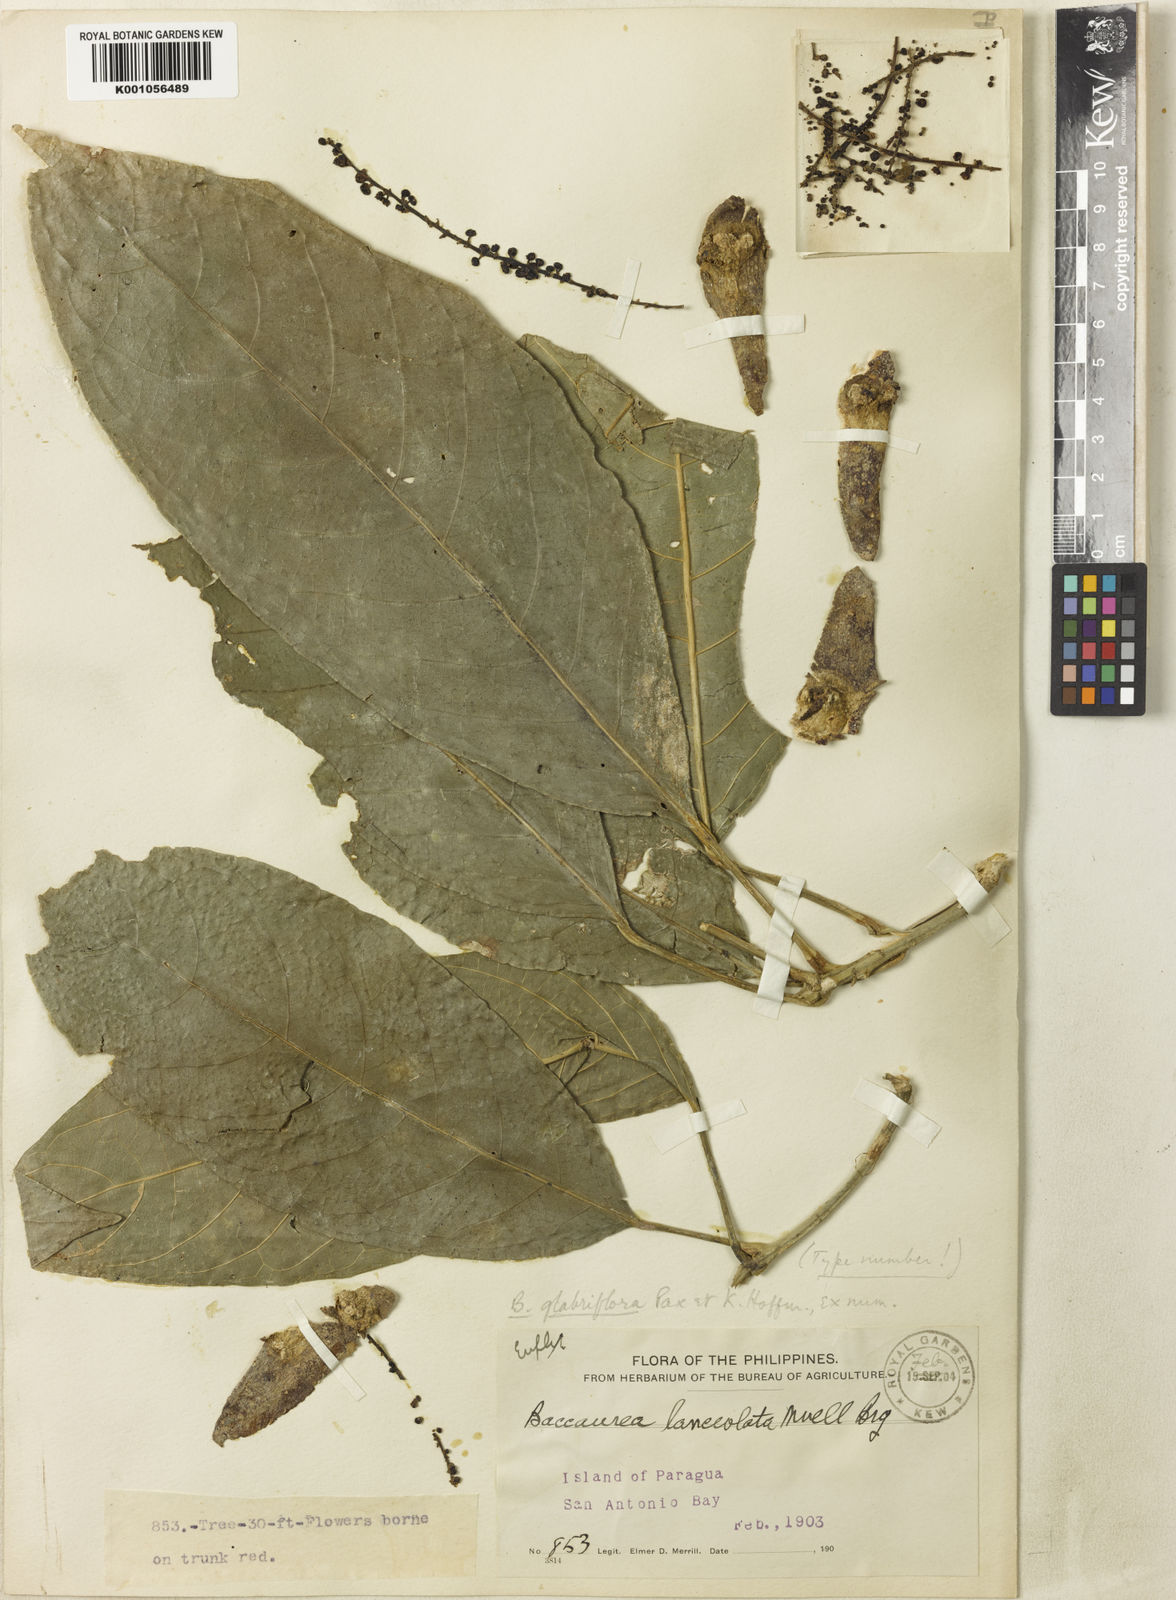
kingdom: Plantae
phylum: Tracheophyta
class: Magnoliopsida
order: Malpighiales
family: Phyllanthaceae
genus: Baccaurea
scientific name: Baccaurea
